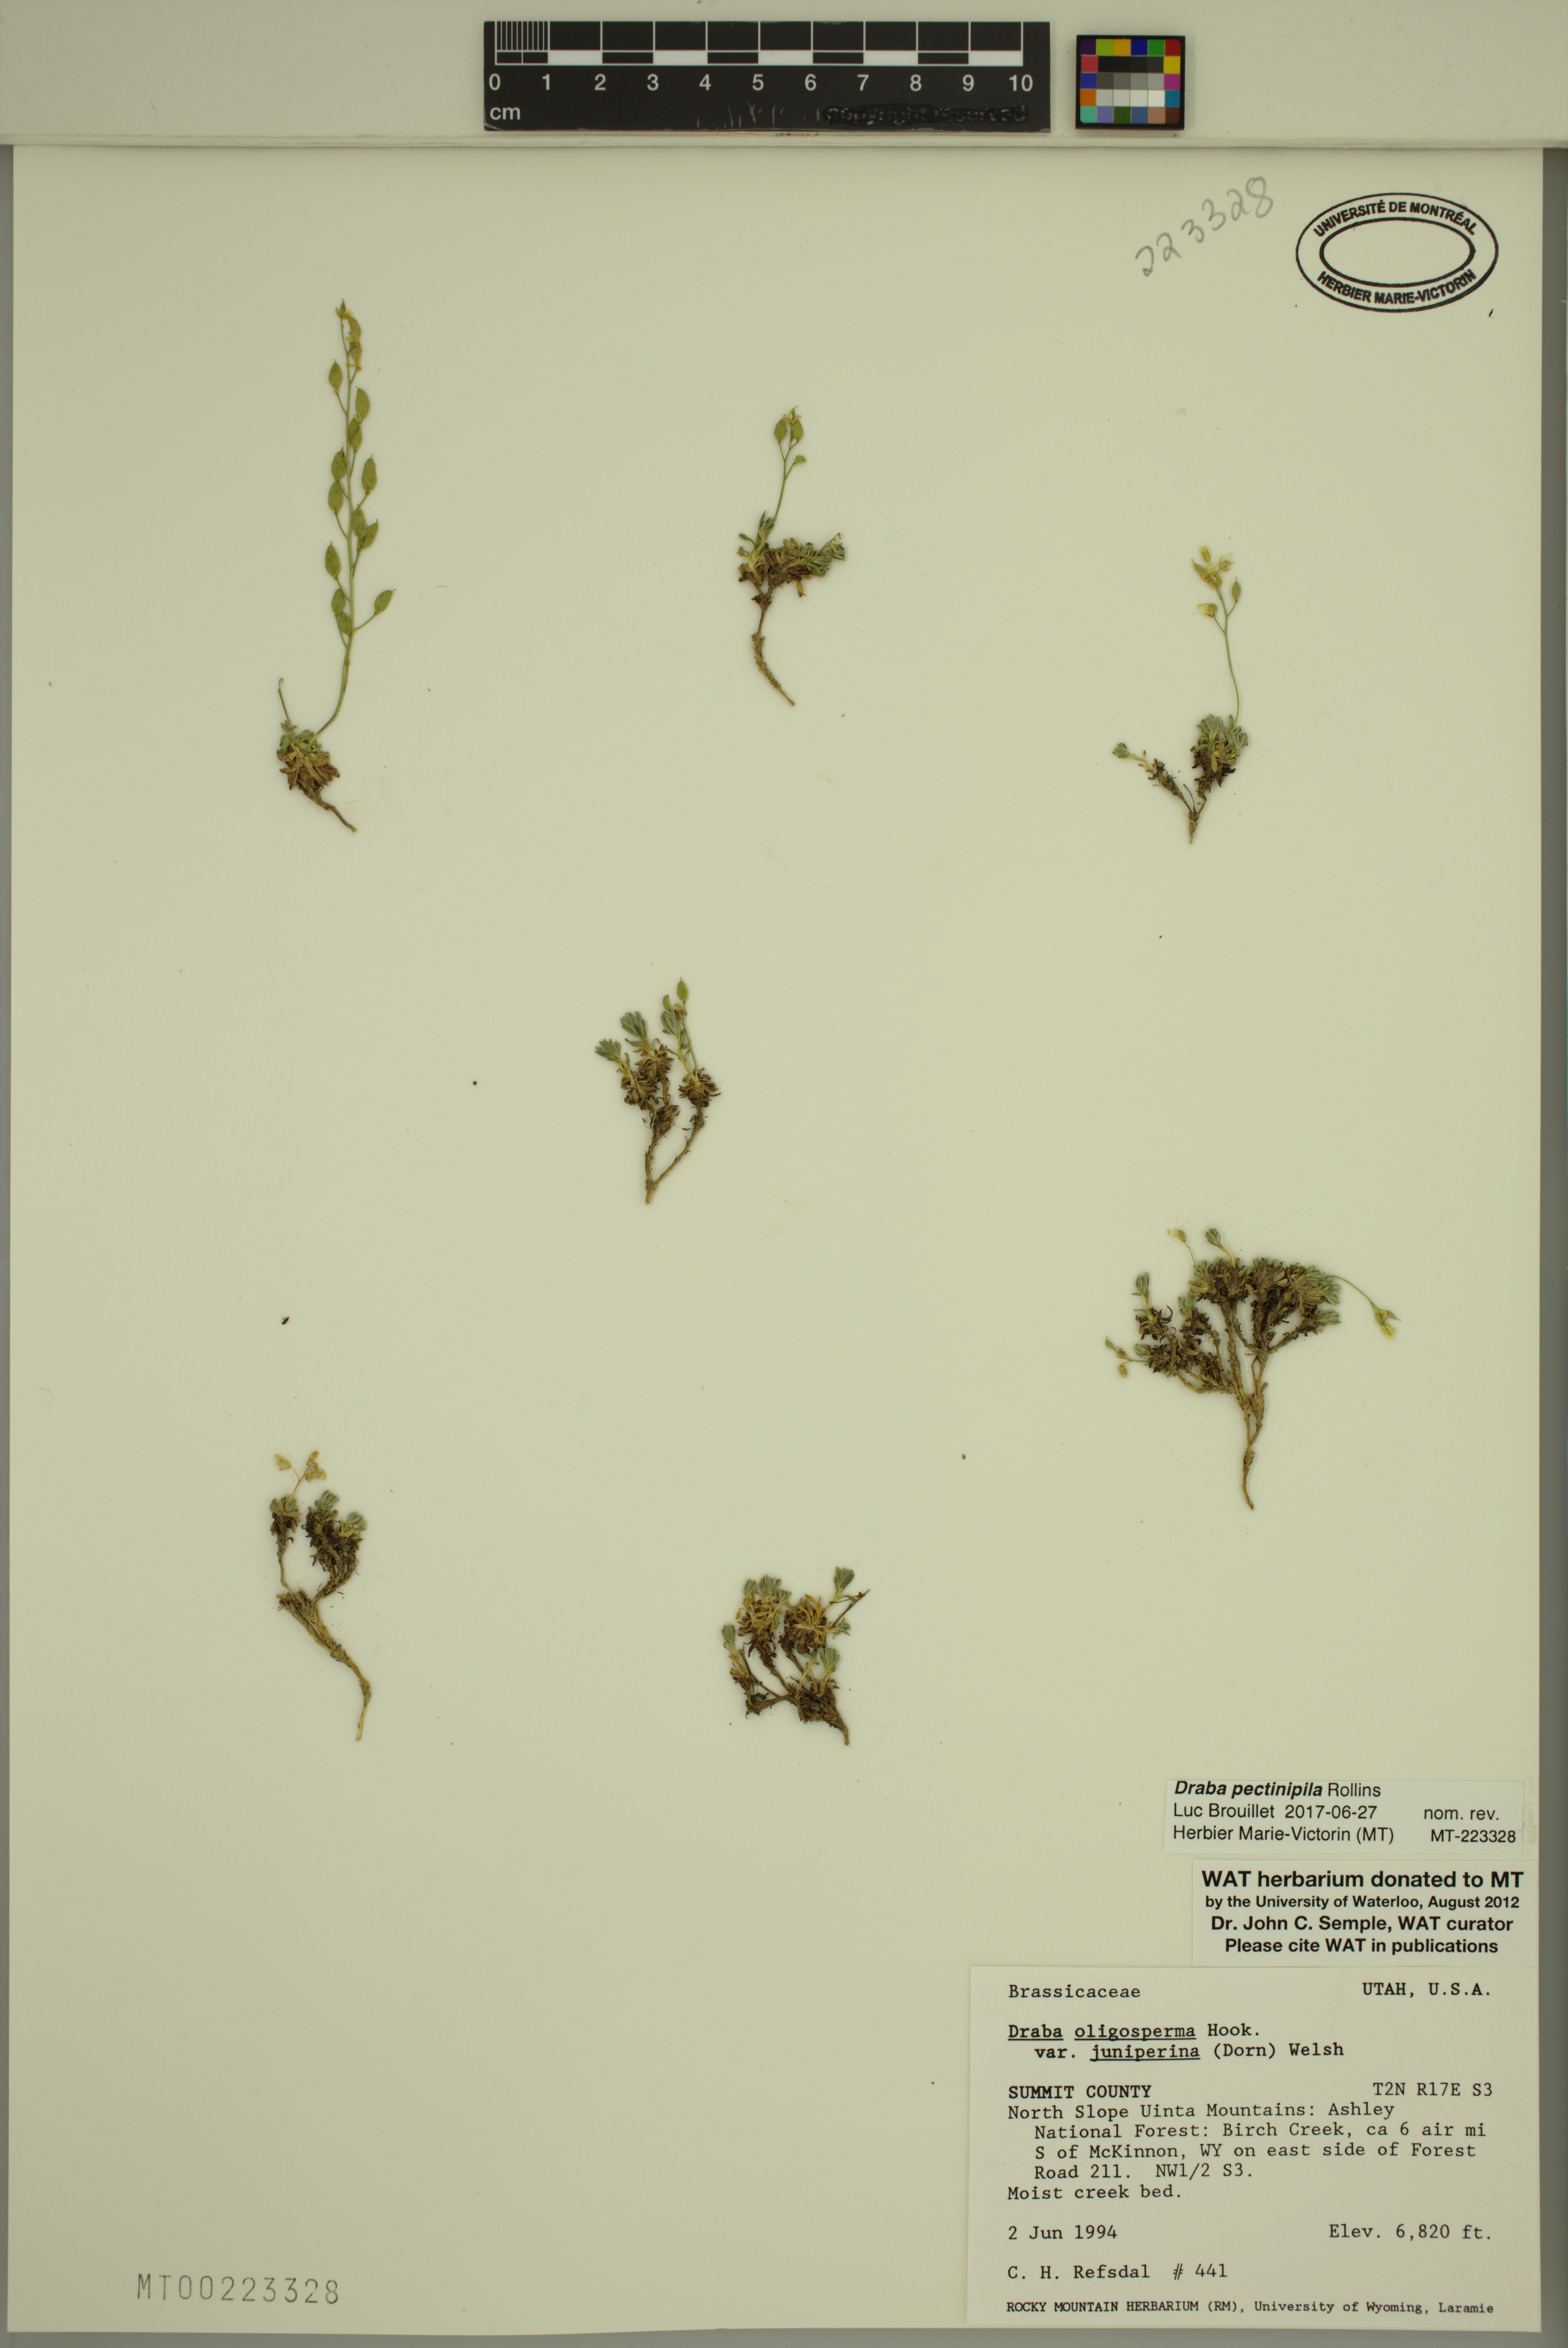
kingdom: Plantae
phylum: Tracheophyta
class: Magnoliopsida
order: Brassicales
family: Brassicaceae
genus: Draba
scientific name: Draba pectinipila
